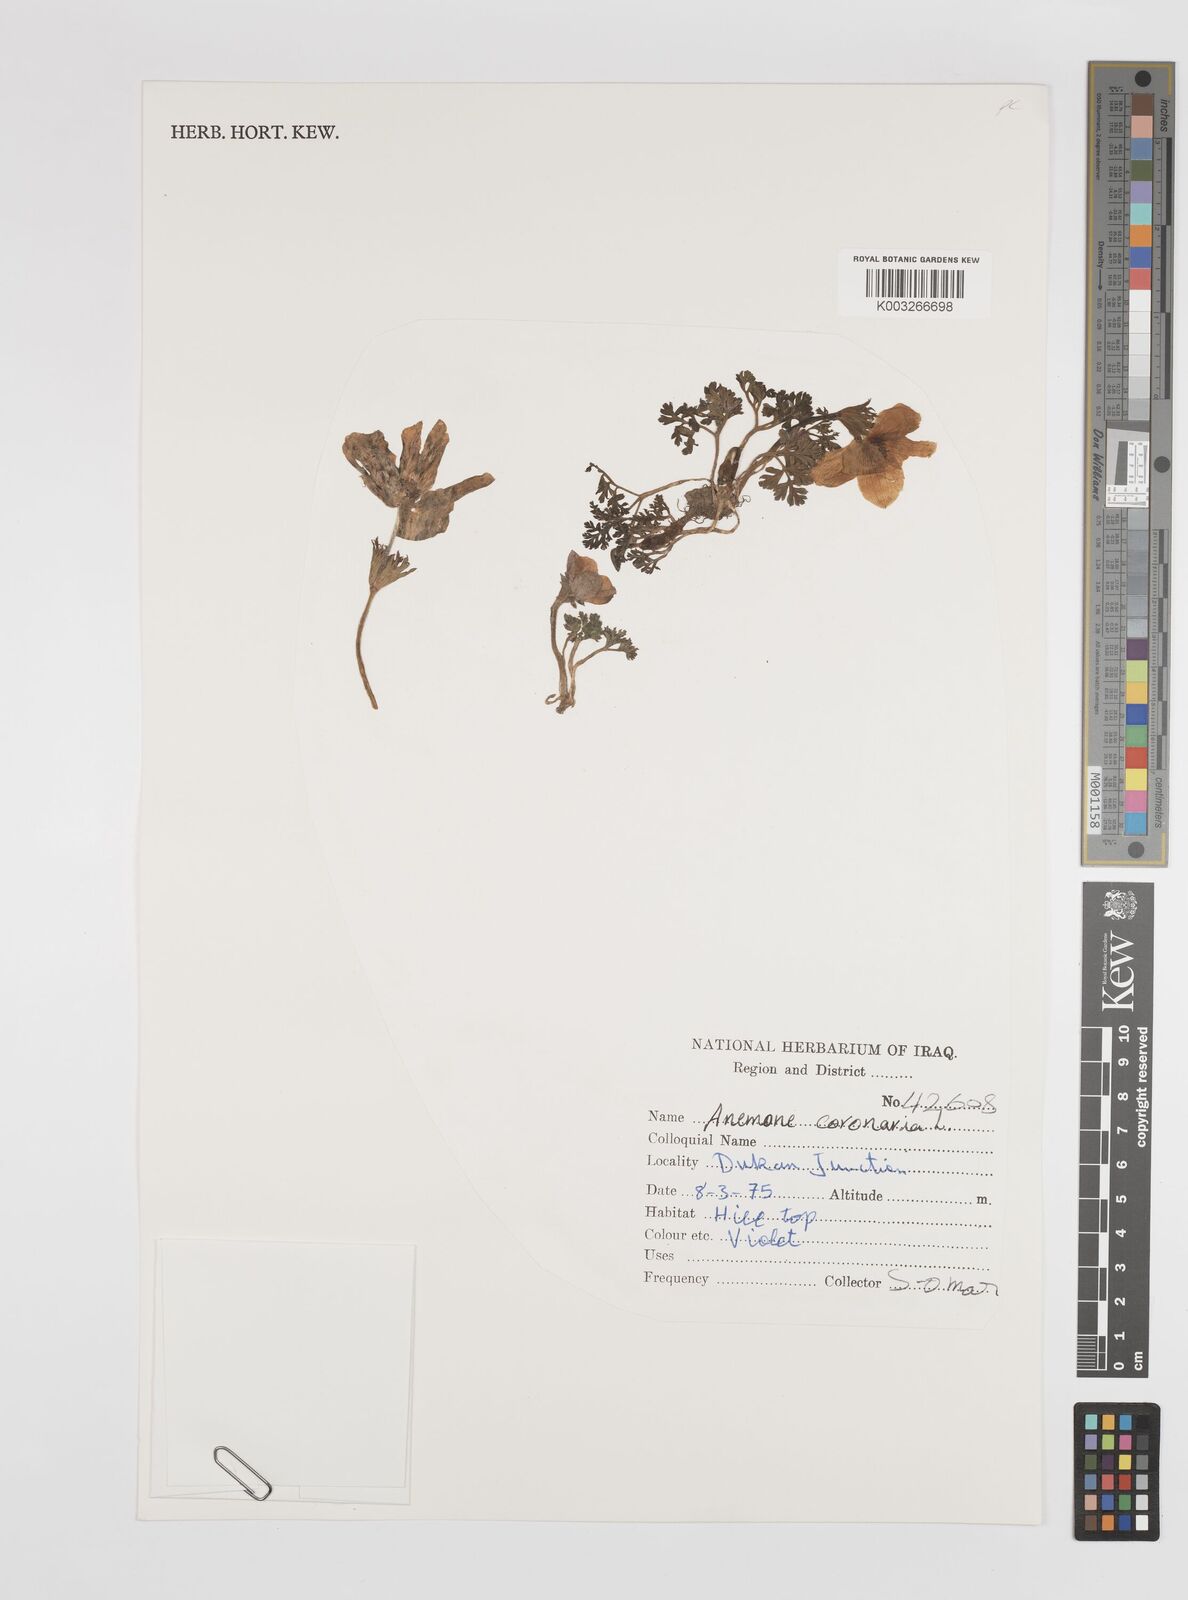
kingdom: Plantae
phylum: Tracheophyta
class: Magnoliopsida
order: Ranunculales
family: Ranunculaceae
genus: Anemone
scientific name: Anemone coronaria
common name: Poppy anemone
